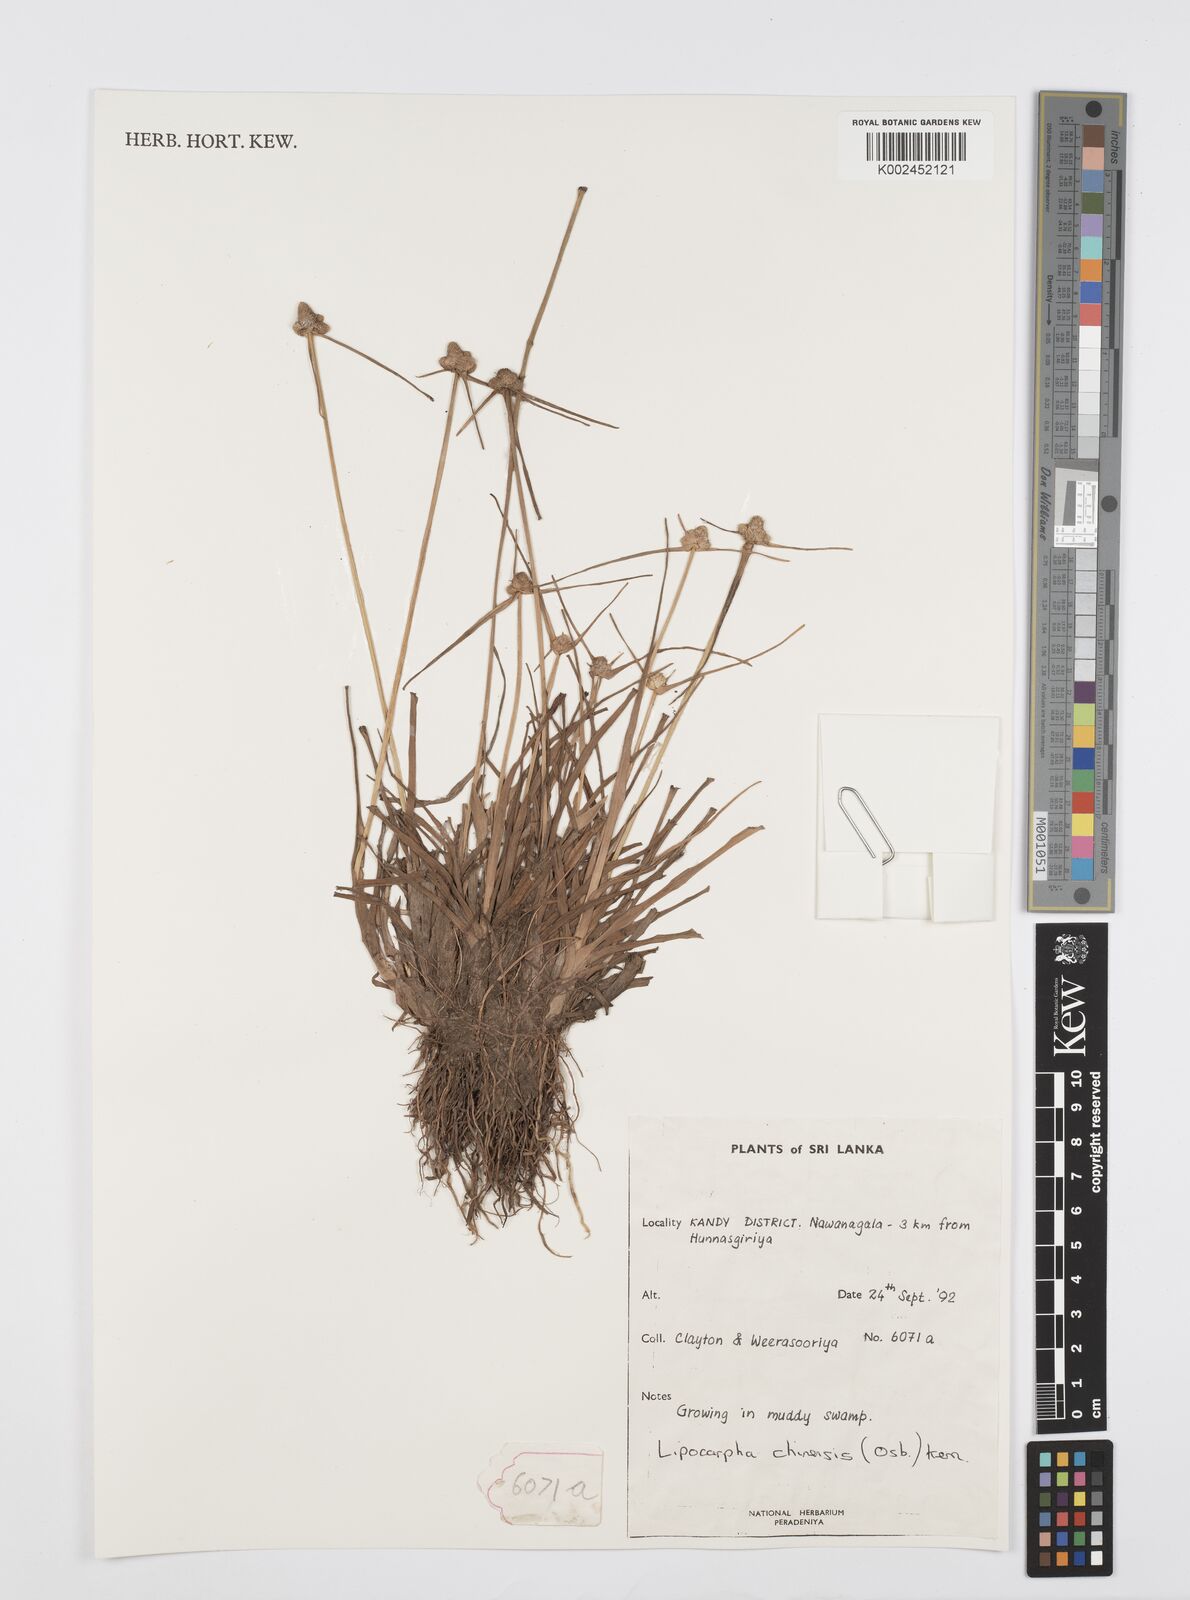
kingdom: Plantae
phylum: Tracheophyta
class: Liliopsida
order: Poales
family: Cyperaceae
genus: Cyperus
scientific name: Cyperus
